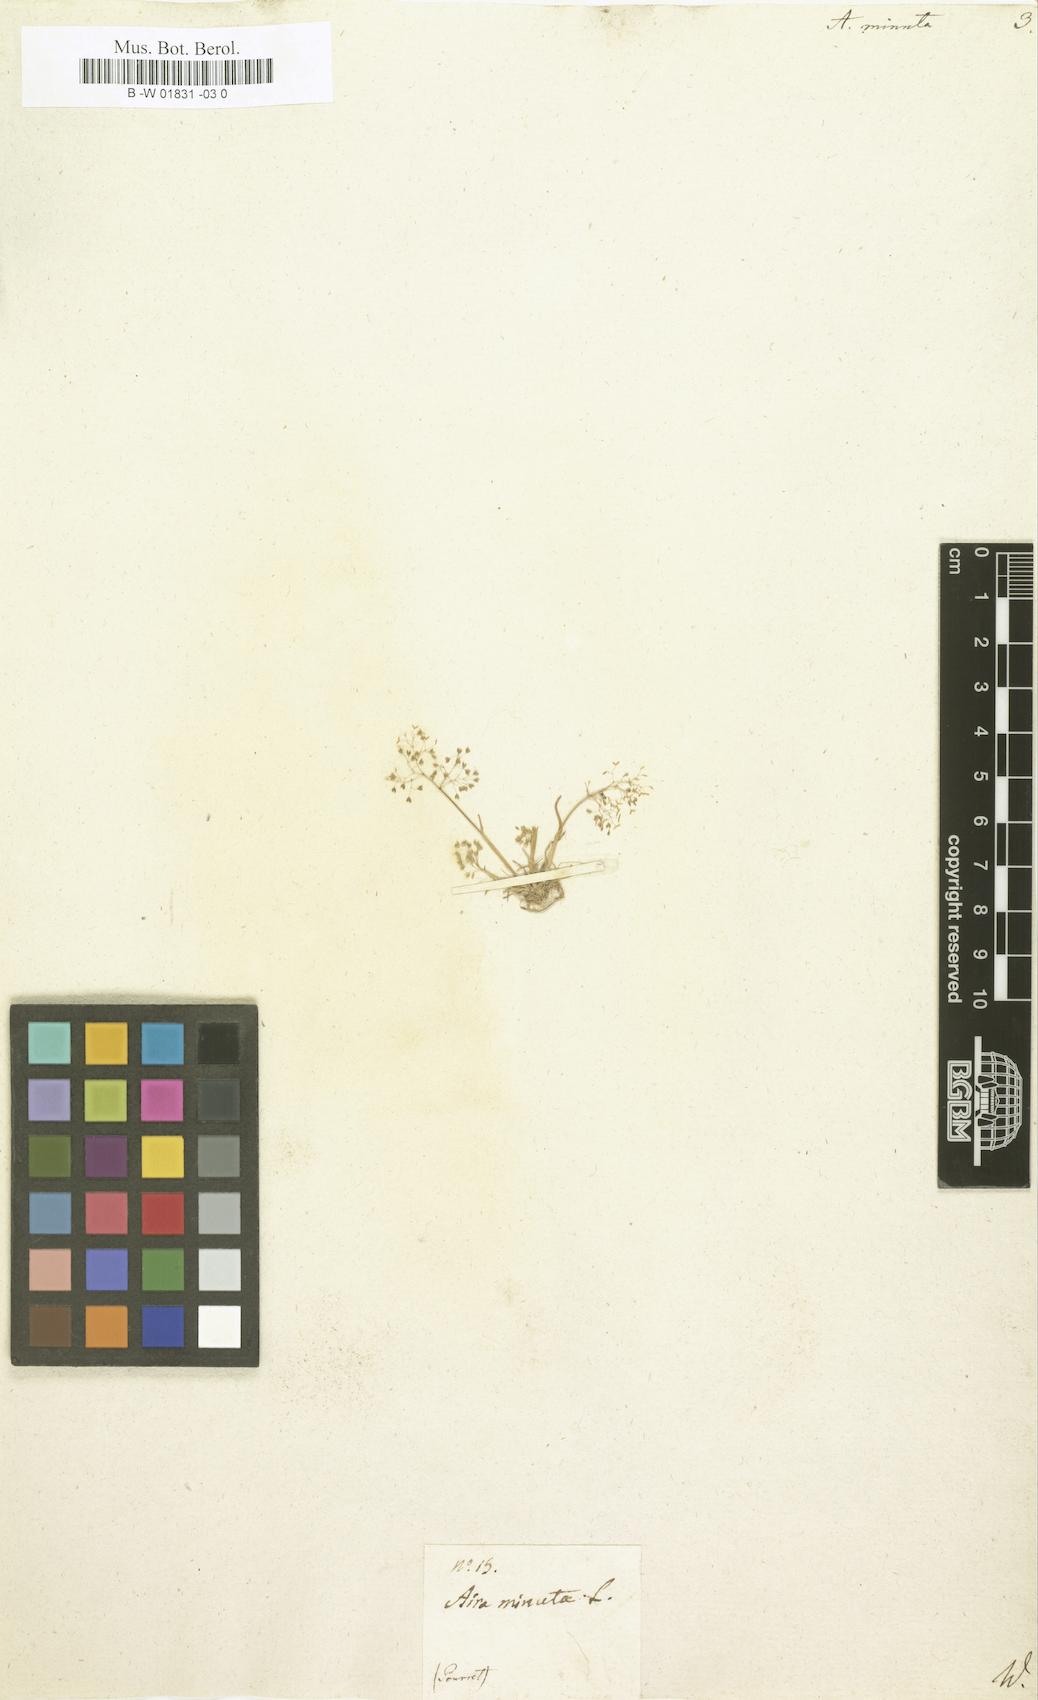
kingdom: Plantae
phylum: Tracheophyta
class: Liliopsida
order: Poales
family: Poaceae
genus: Molineriella
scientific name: Molineriella minuta
